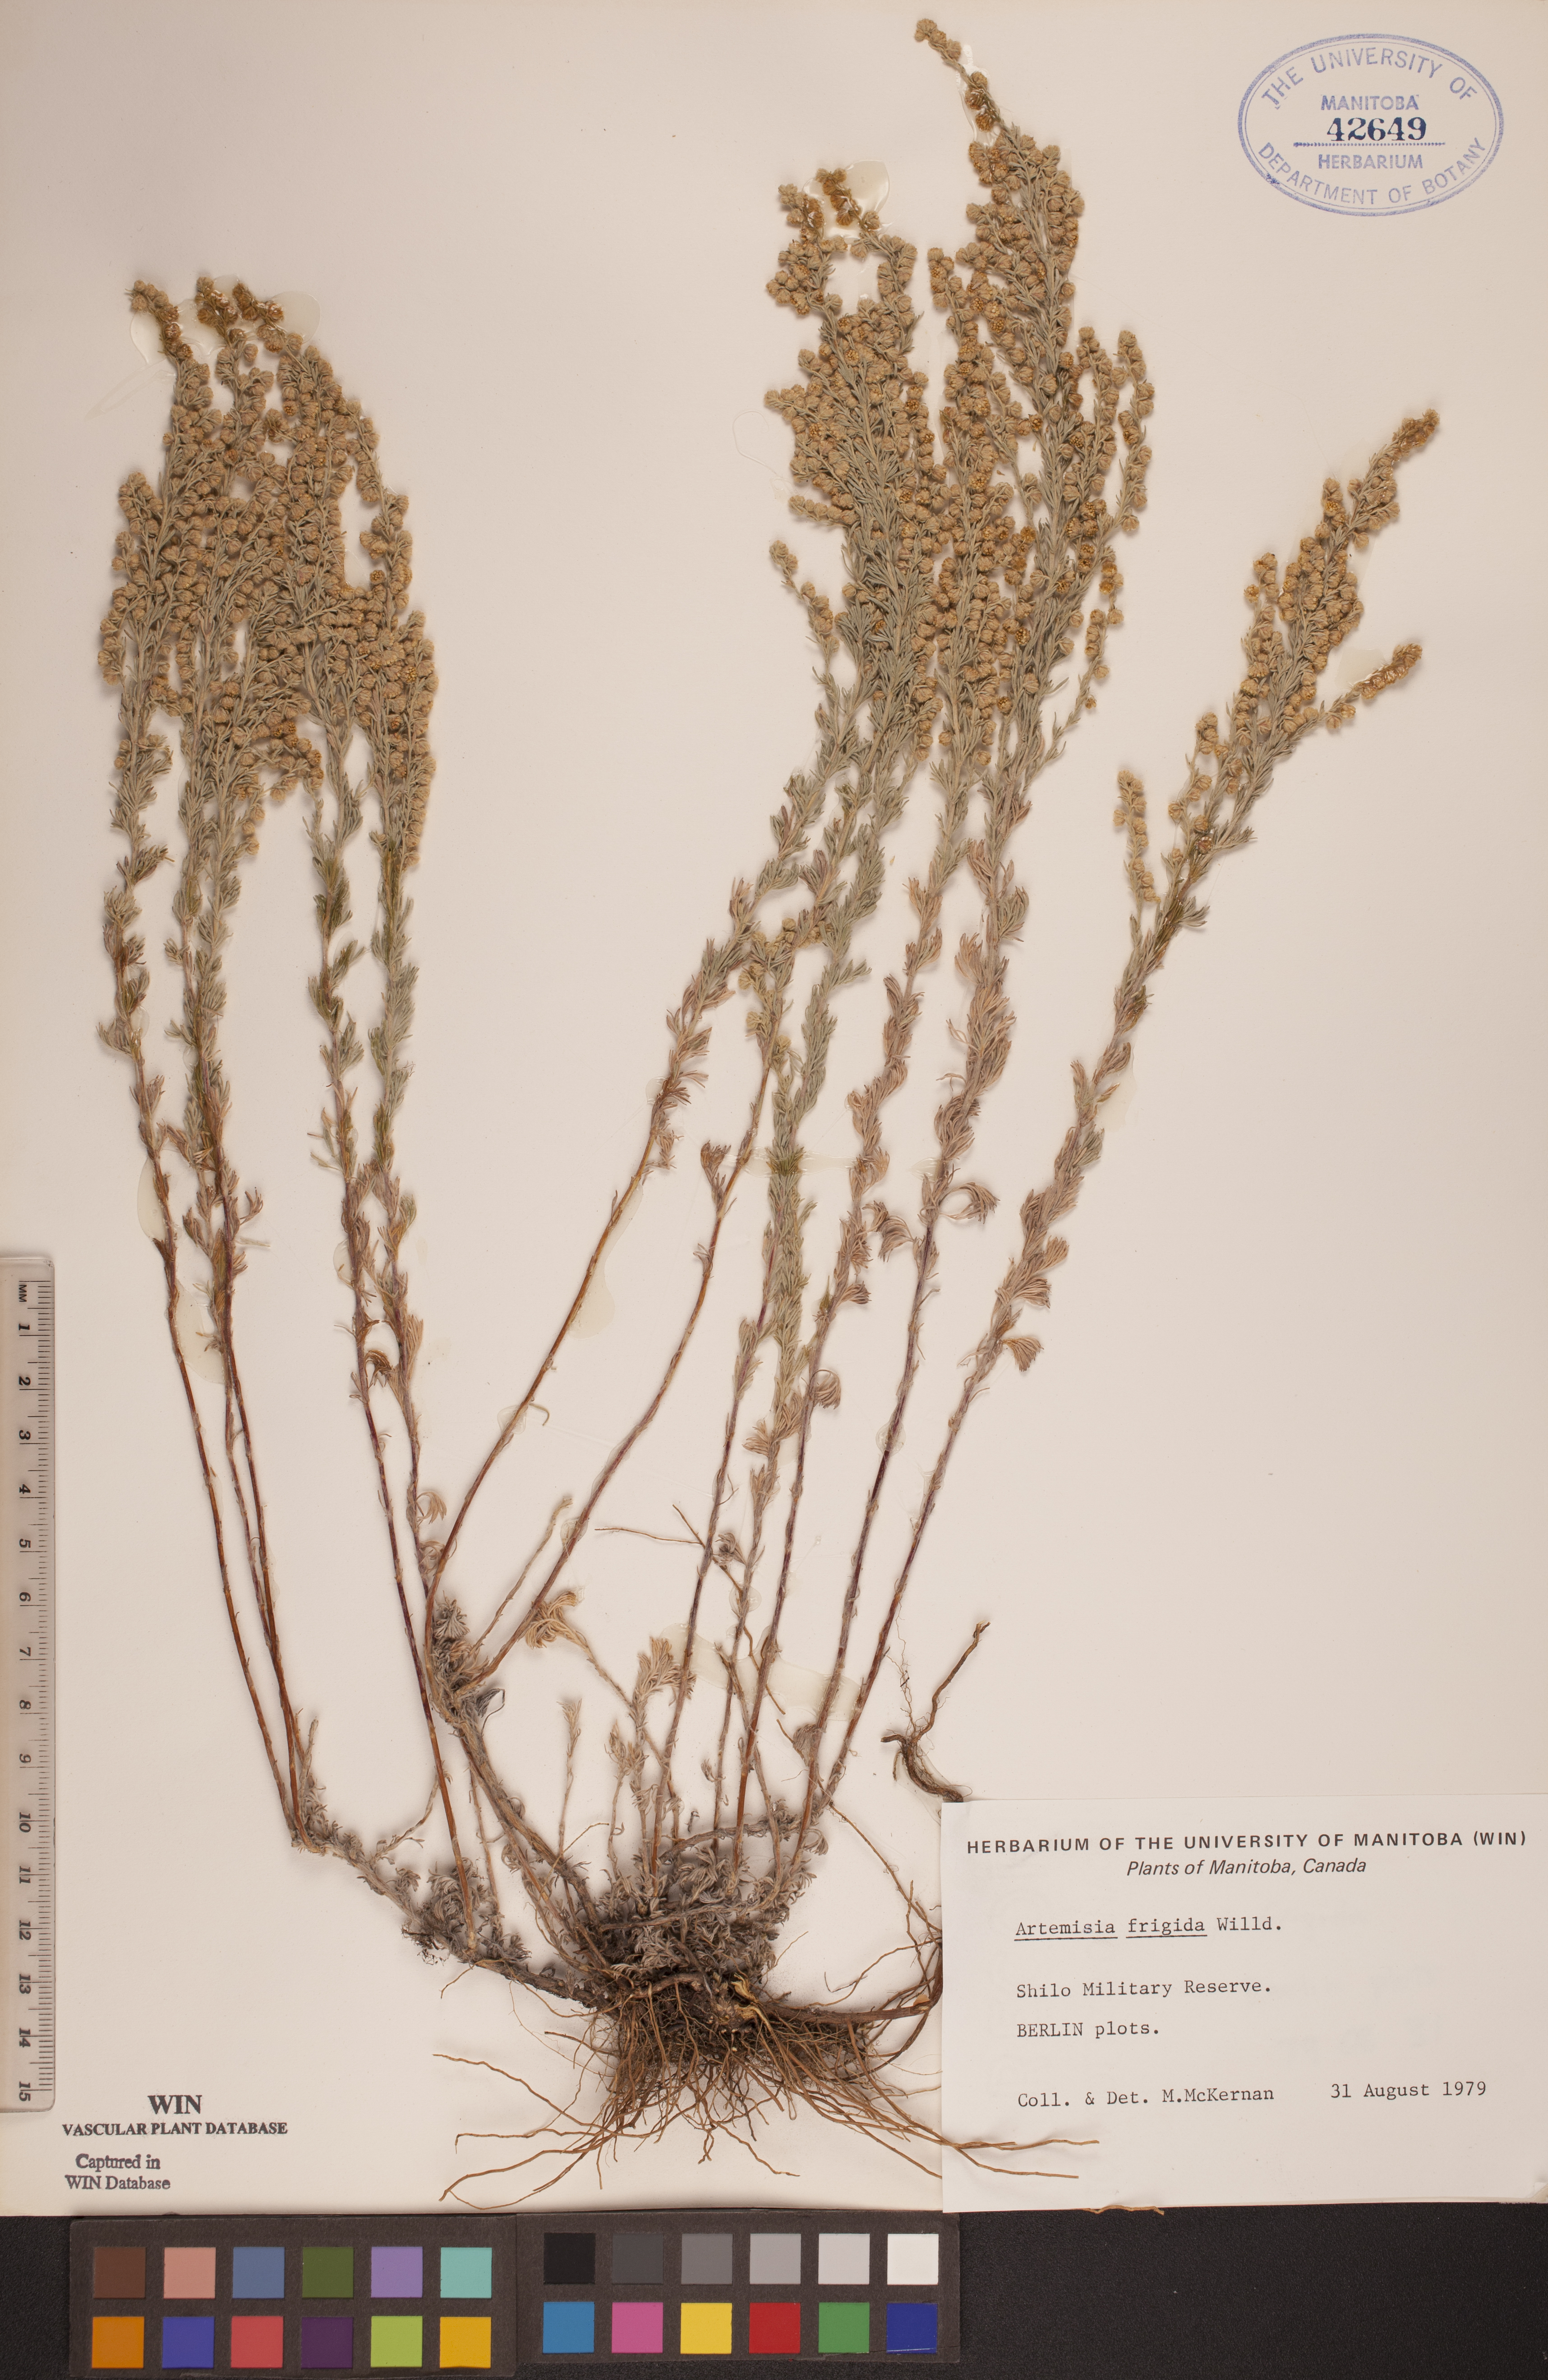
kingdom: Plantae
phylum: Tracheophyta
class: Magnoliopsida
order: Asterales
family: Asteraceae
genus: Artemisia
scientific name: Artemisia frigida
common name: Prairie sagewort
